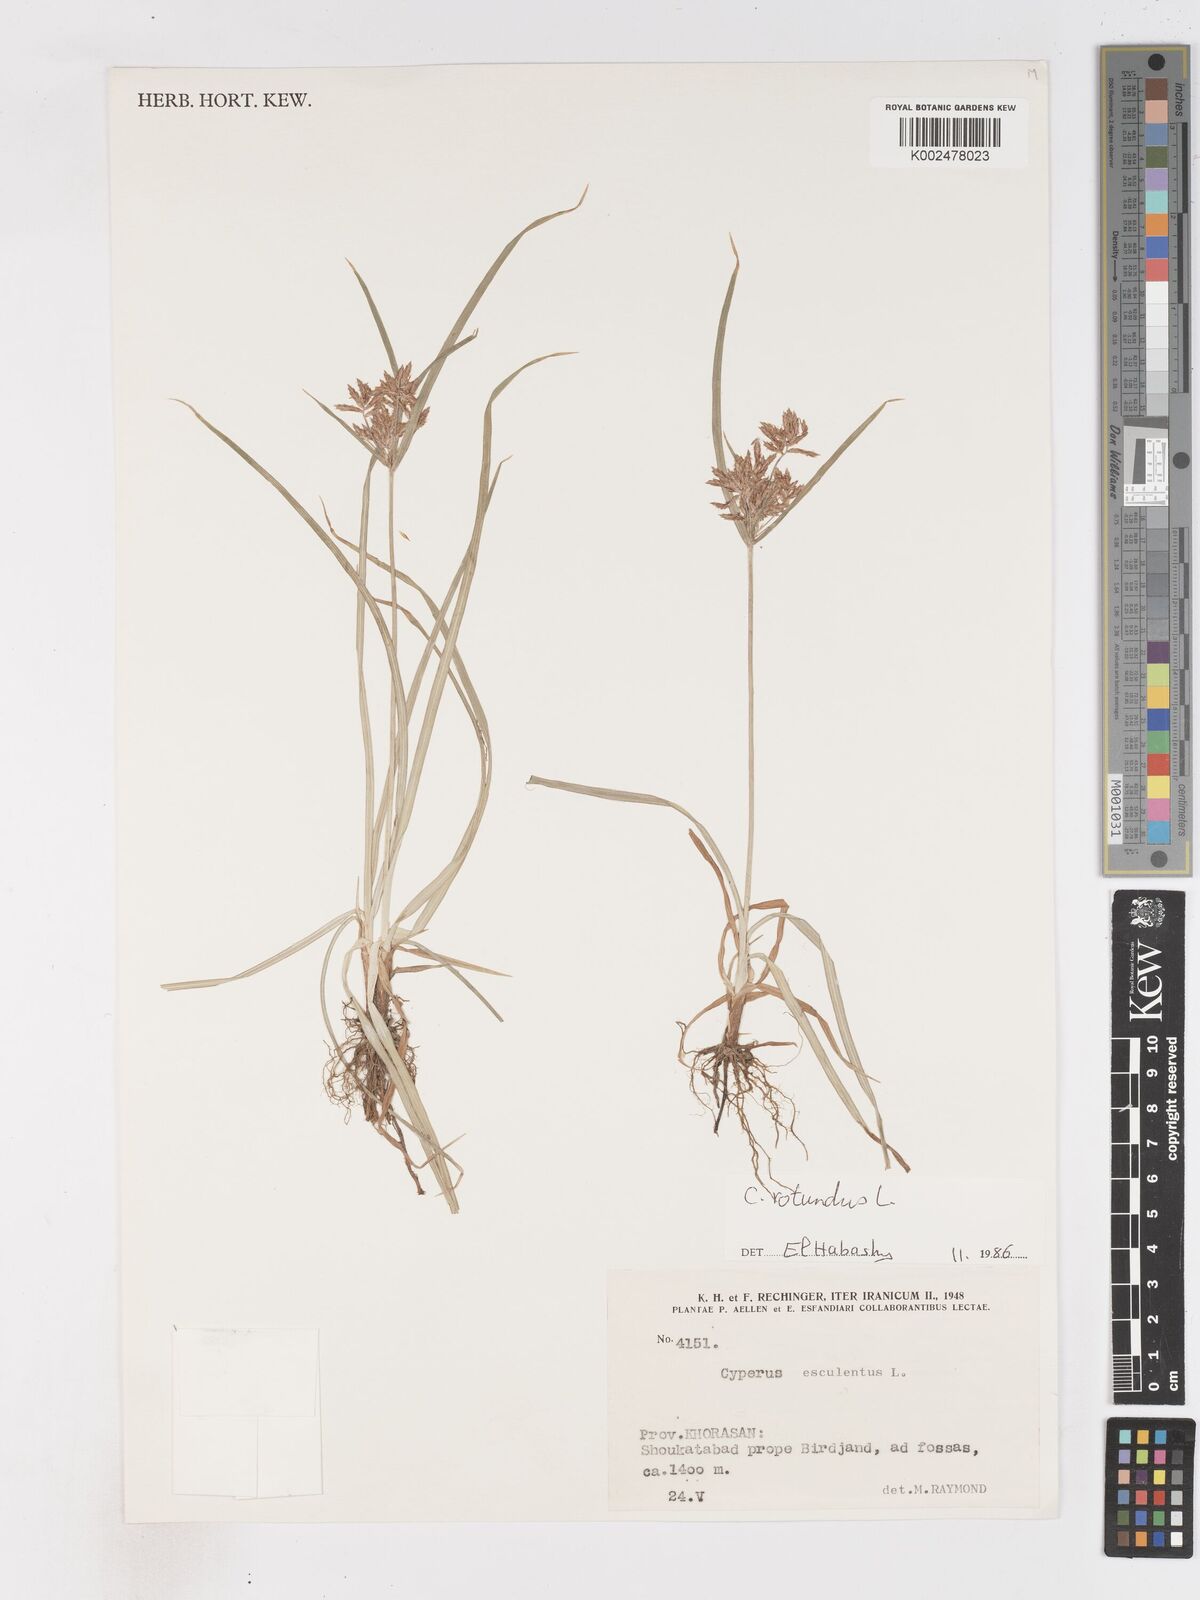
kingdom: Plantae
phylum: Tracheophyta
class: Liliopsida
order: Poales
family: Cyperaceae
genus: Cyperus
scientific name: Cyperus rotundus
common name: Nutgrass
